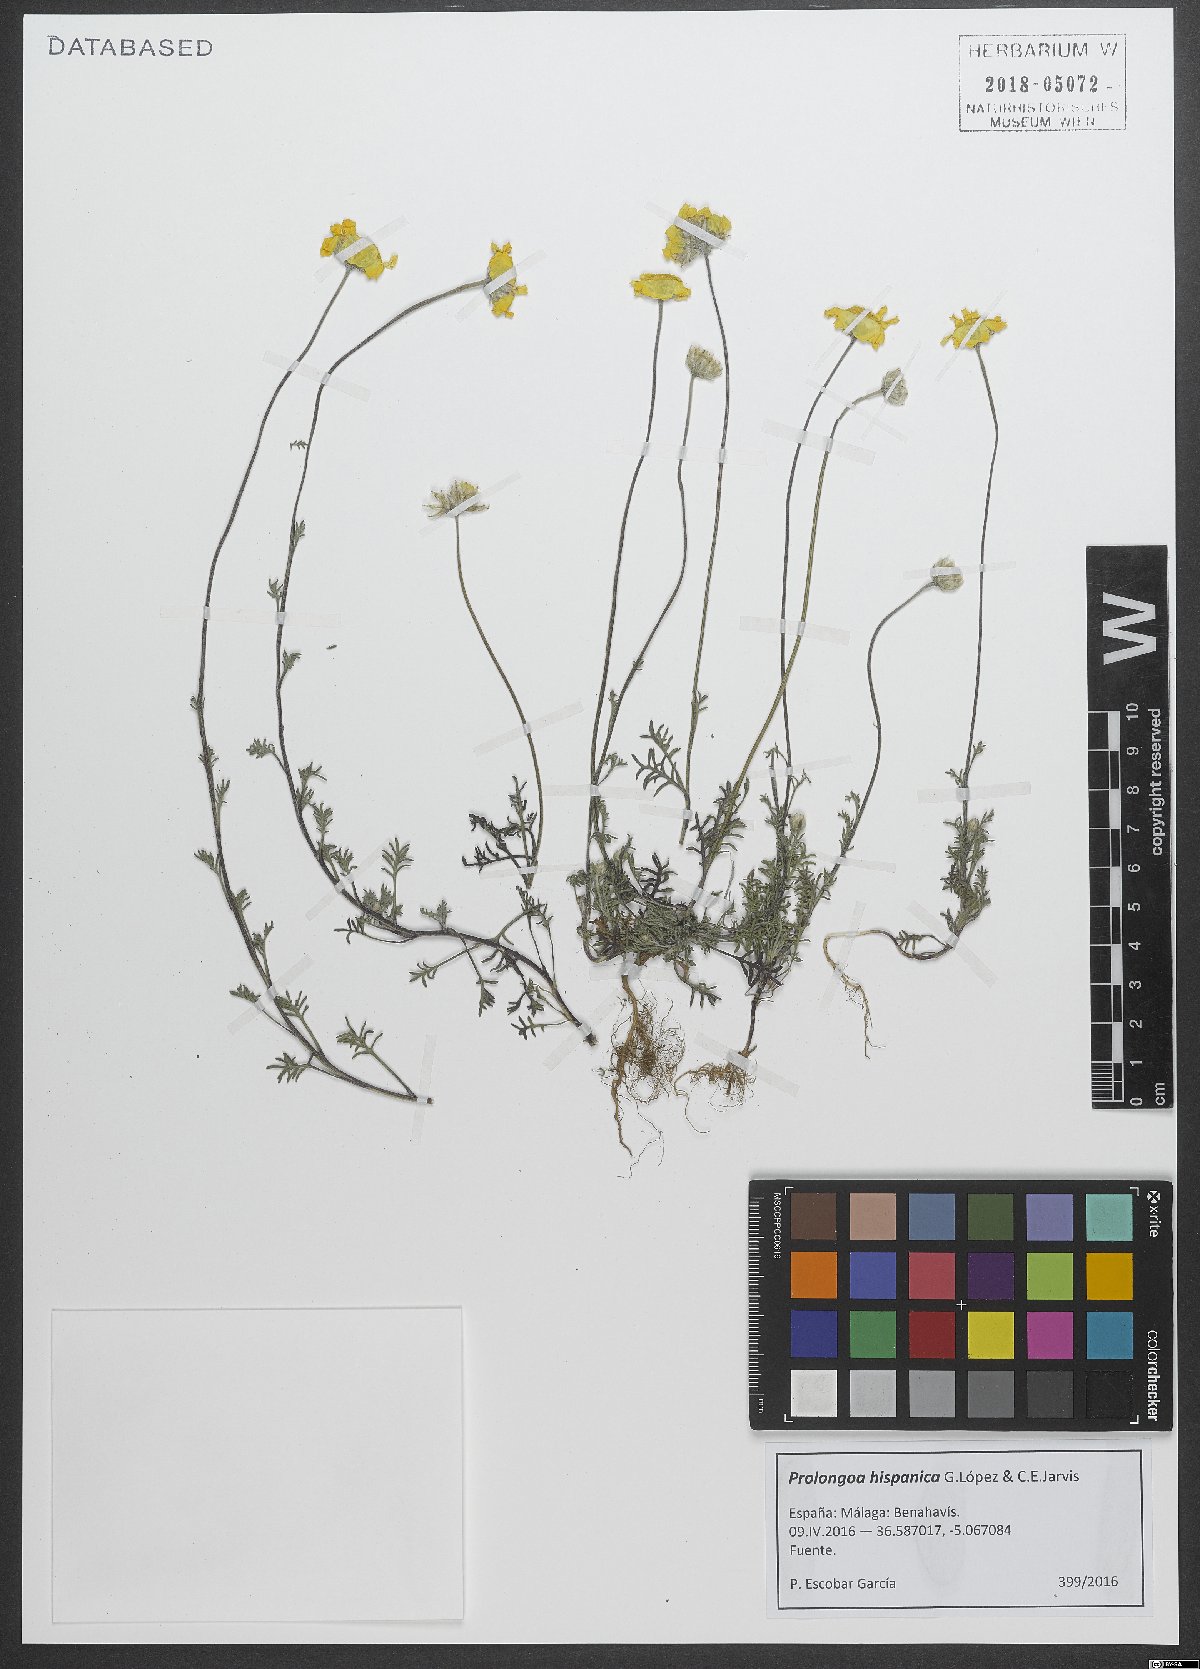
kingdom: Plantae
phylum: Tracheophyta
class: Magnoliopsida
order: Asterales
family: Asteraceae
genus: Prolongoa
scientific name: Prolongoa hispanica
